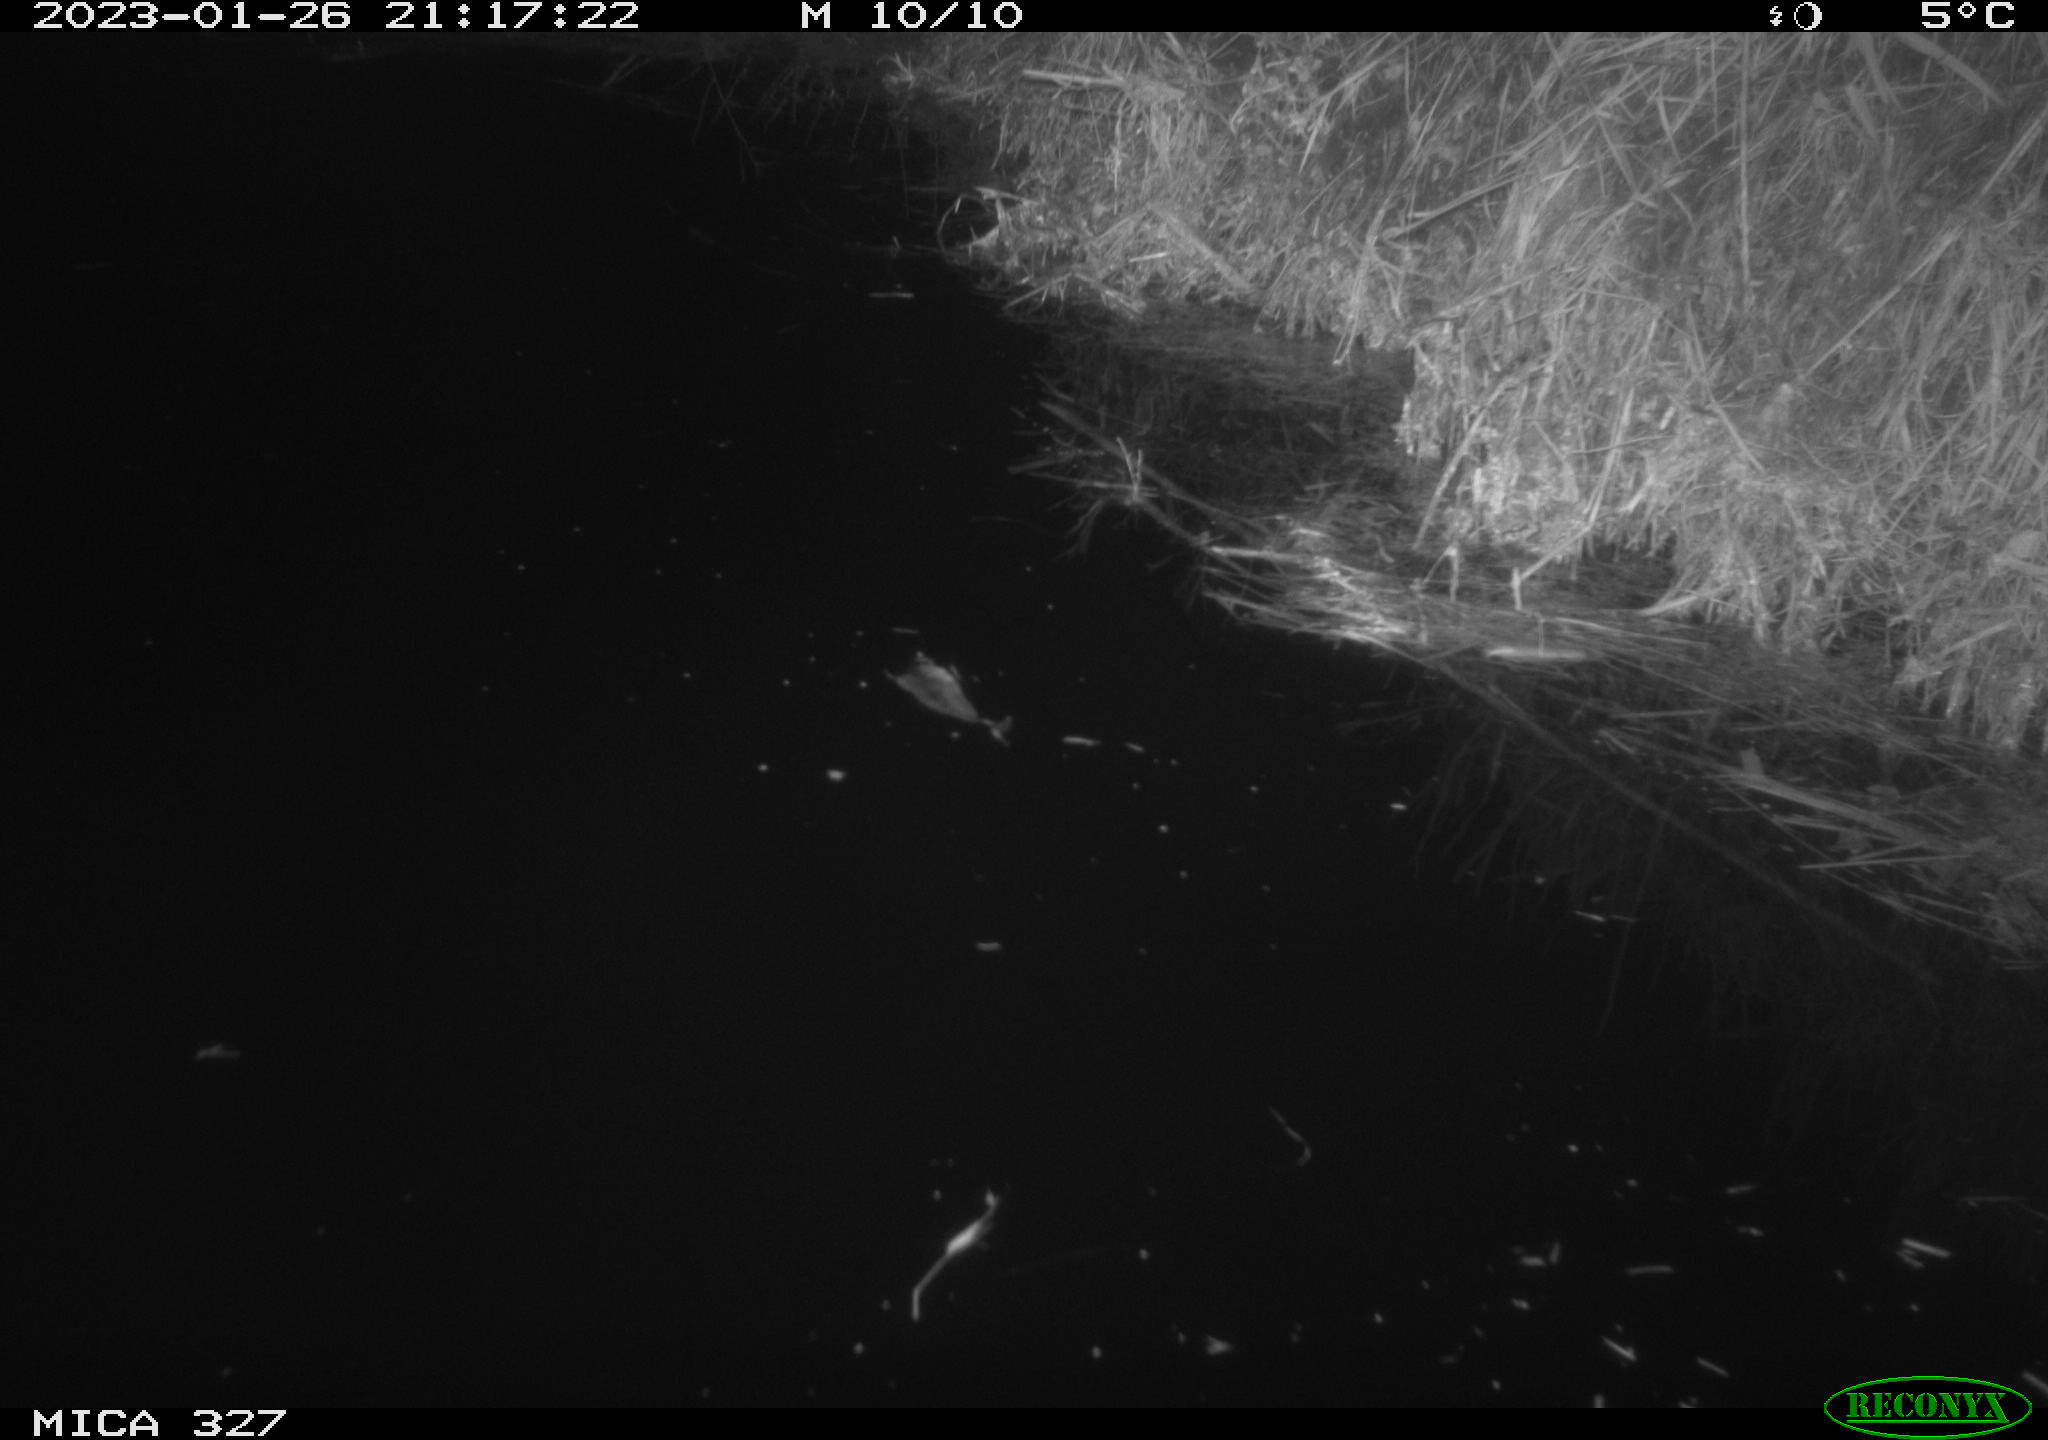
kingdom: Animalia
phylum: Chordata
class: Mammalia
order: Rodentia
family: Cricetidae
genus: Ondatra
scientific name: Ondatra zibethicus
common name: Muskrat
